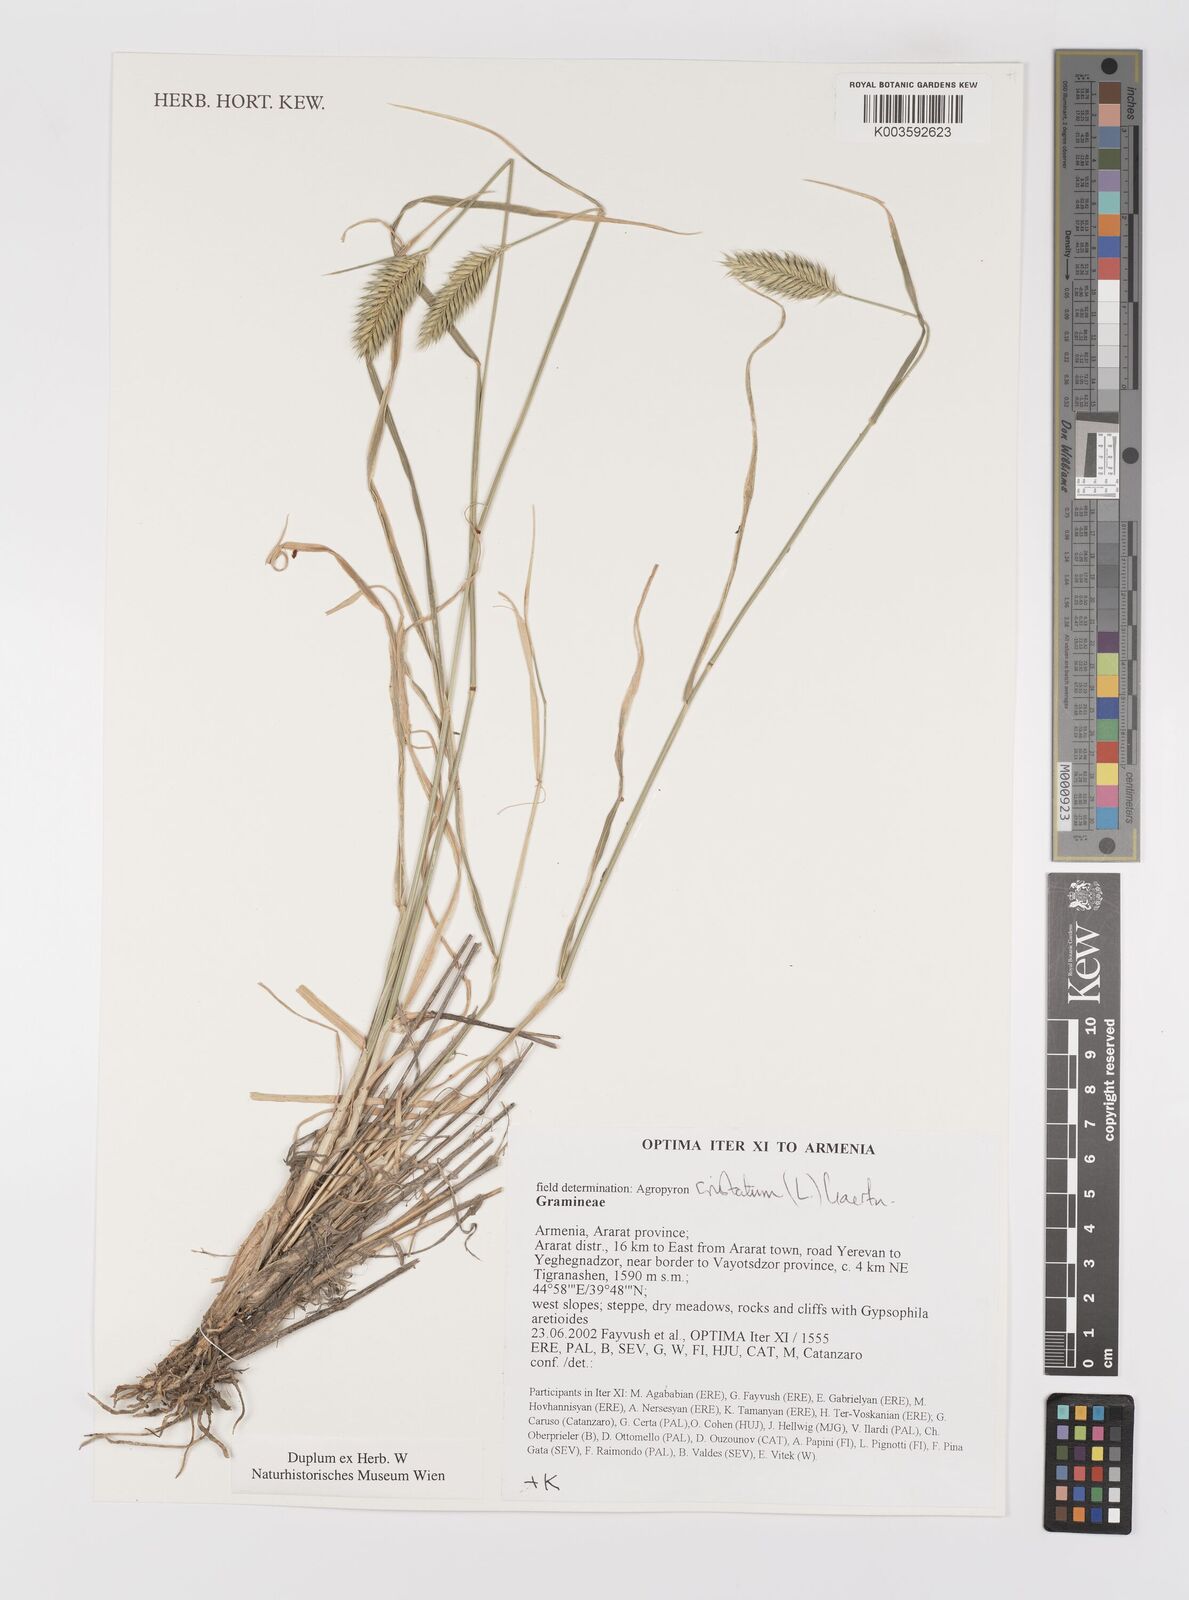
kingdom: Plantae
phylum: Tracheophyta
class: Liliopsida
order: Poales
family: Poaceae
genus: Agropyron
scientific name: Agropyron cristatum
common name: Crested wheatgrass
